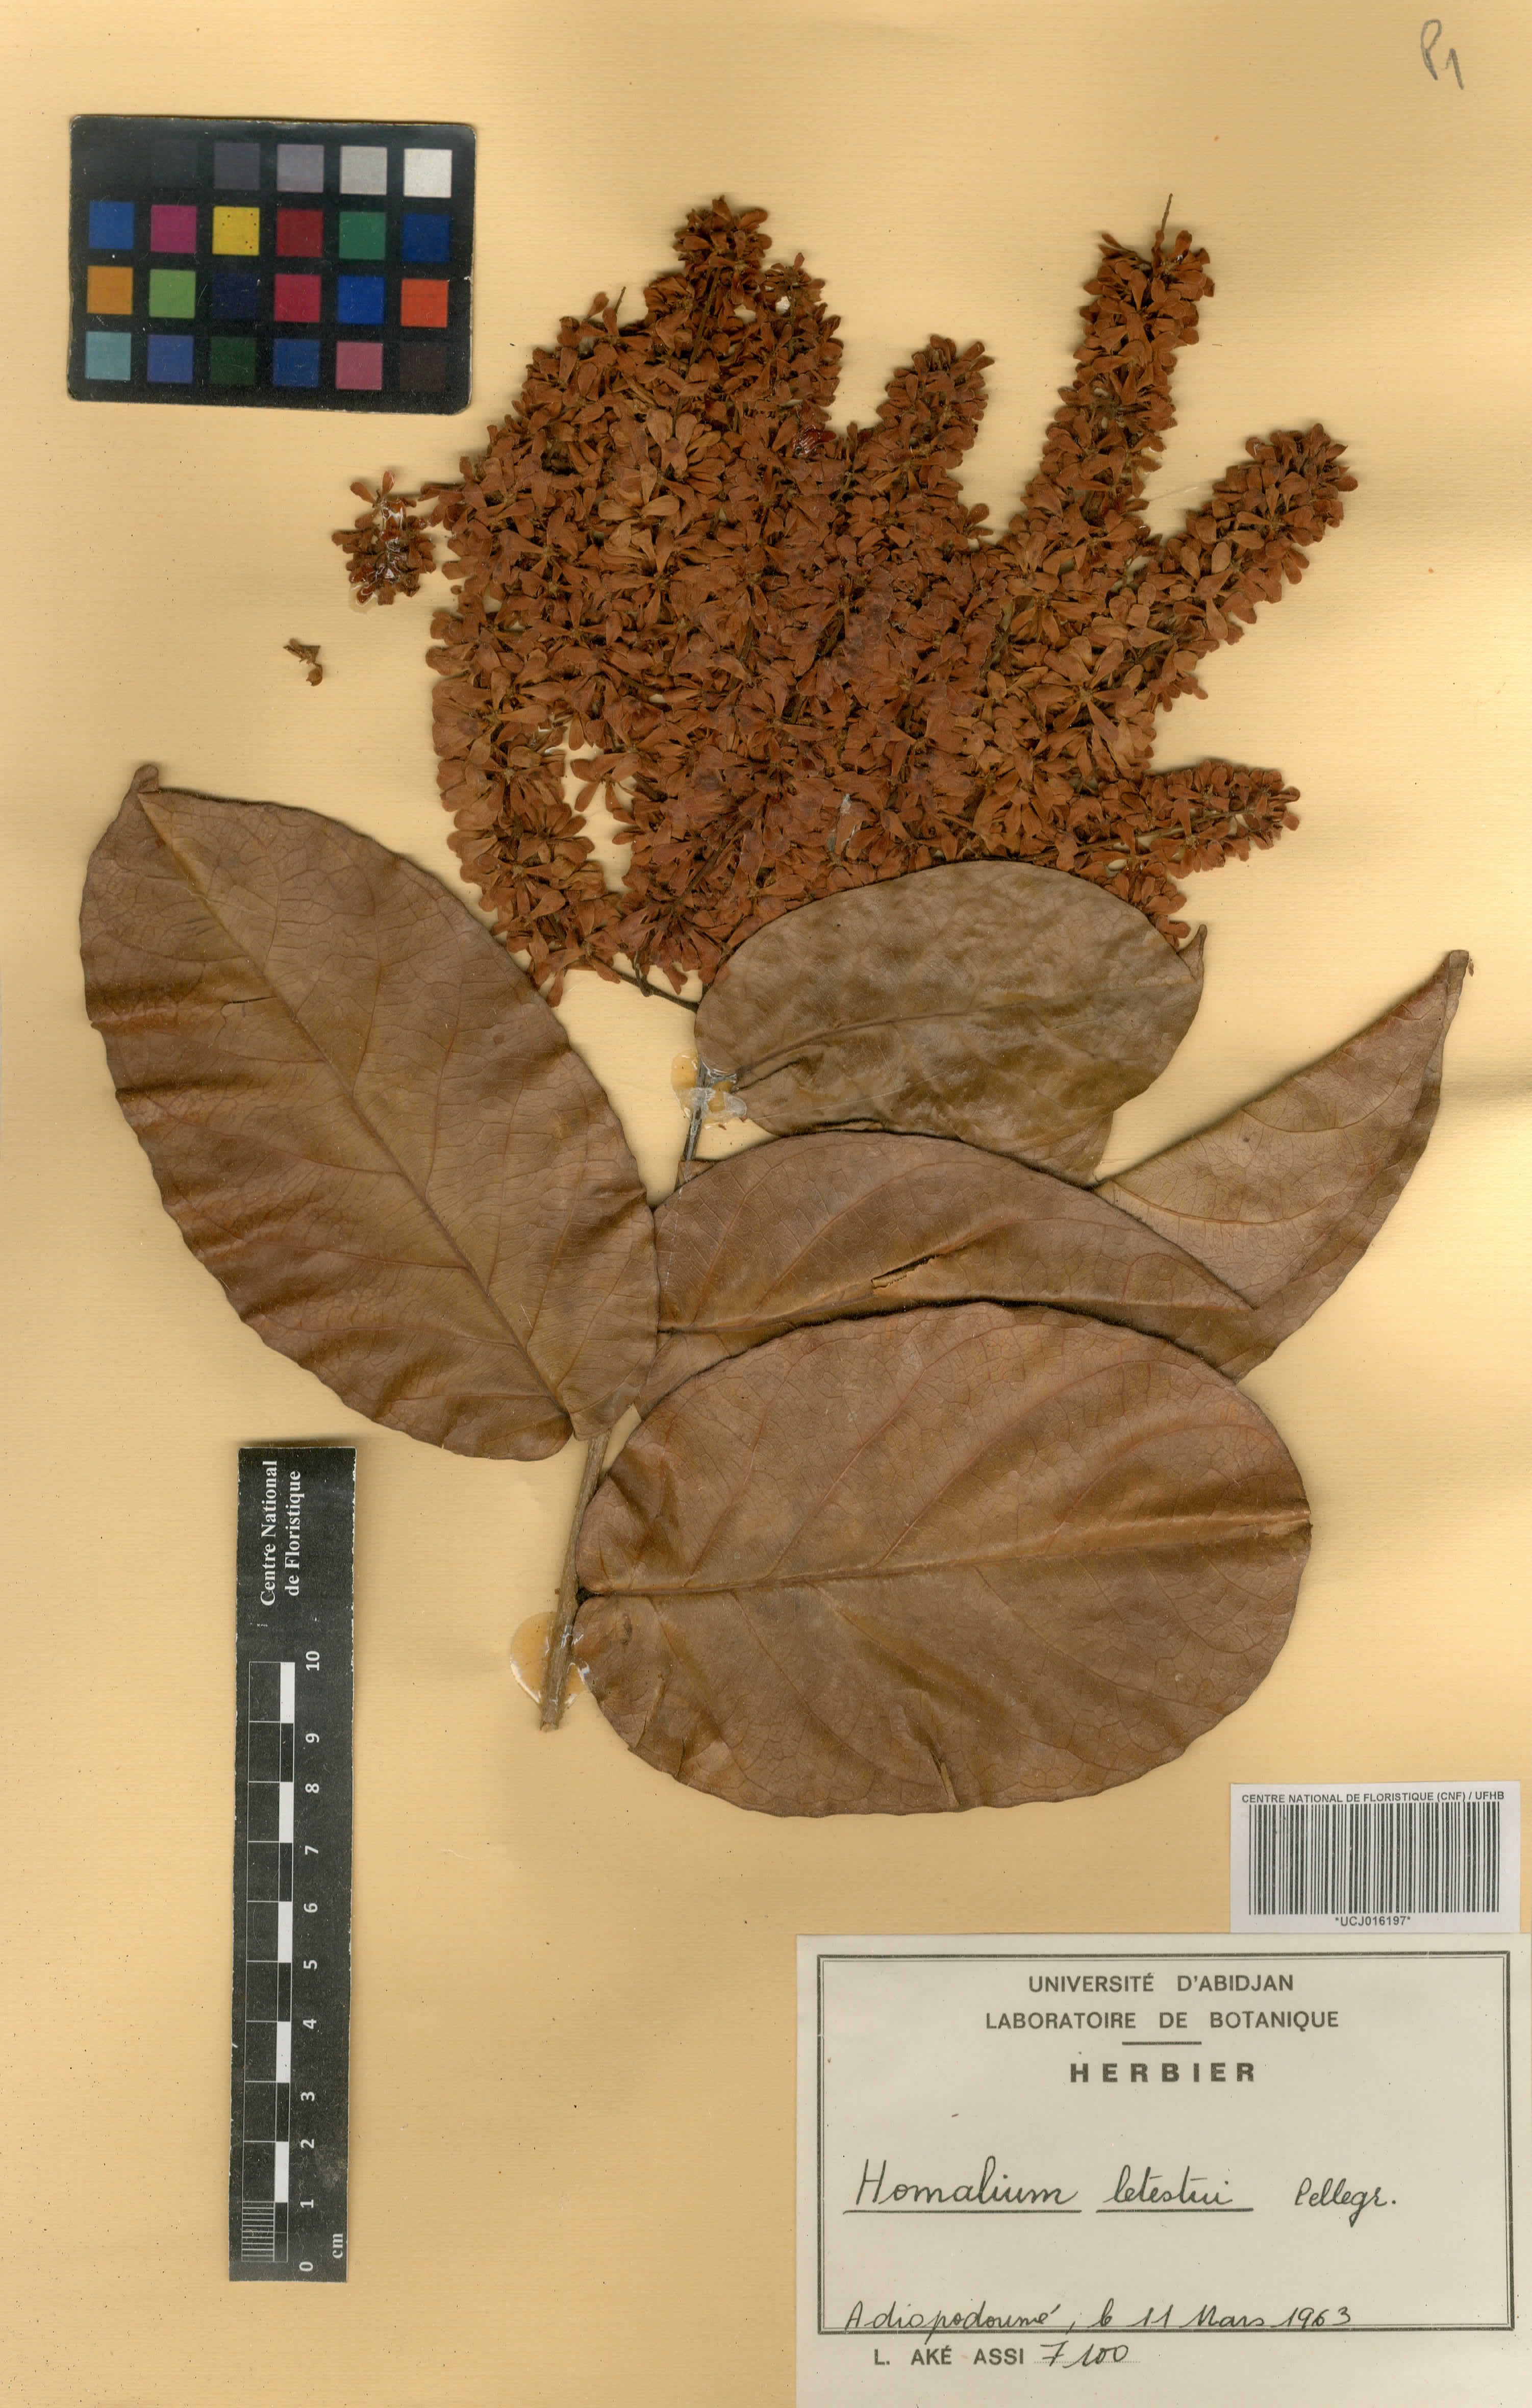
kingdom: Plantae
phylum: Tracheophyta
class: Magnoliopsida
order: Malpighiales
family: Salicaceae
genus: Homalium
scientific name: Homalium letestui
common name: African homalium
